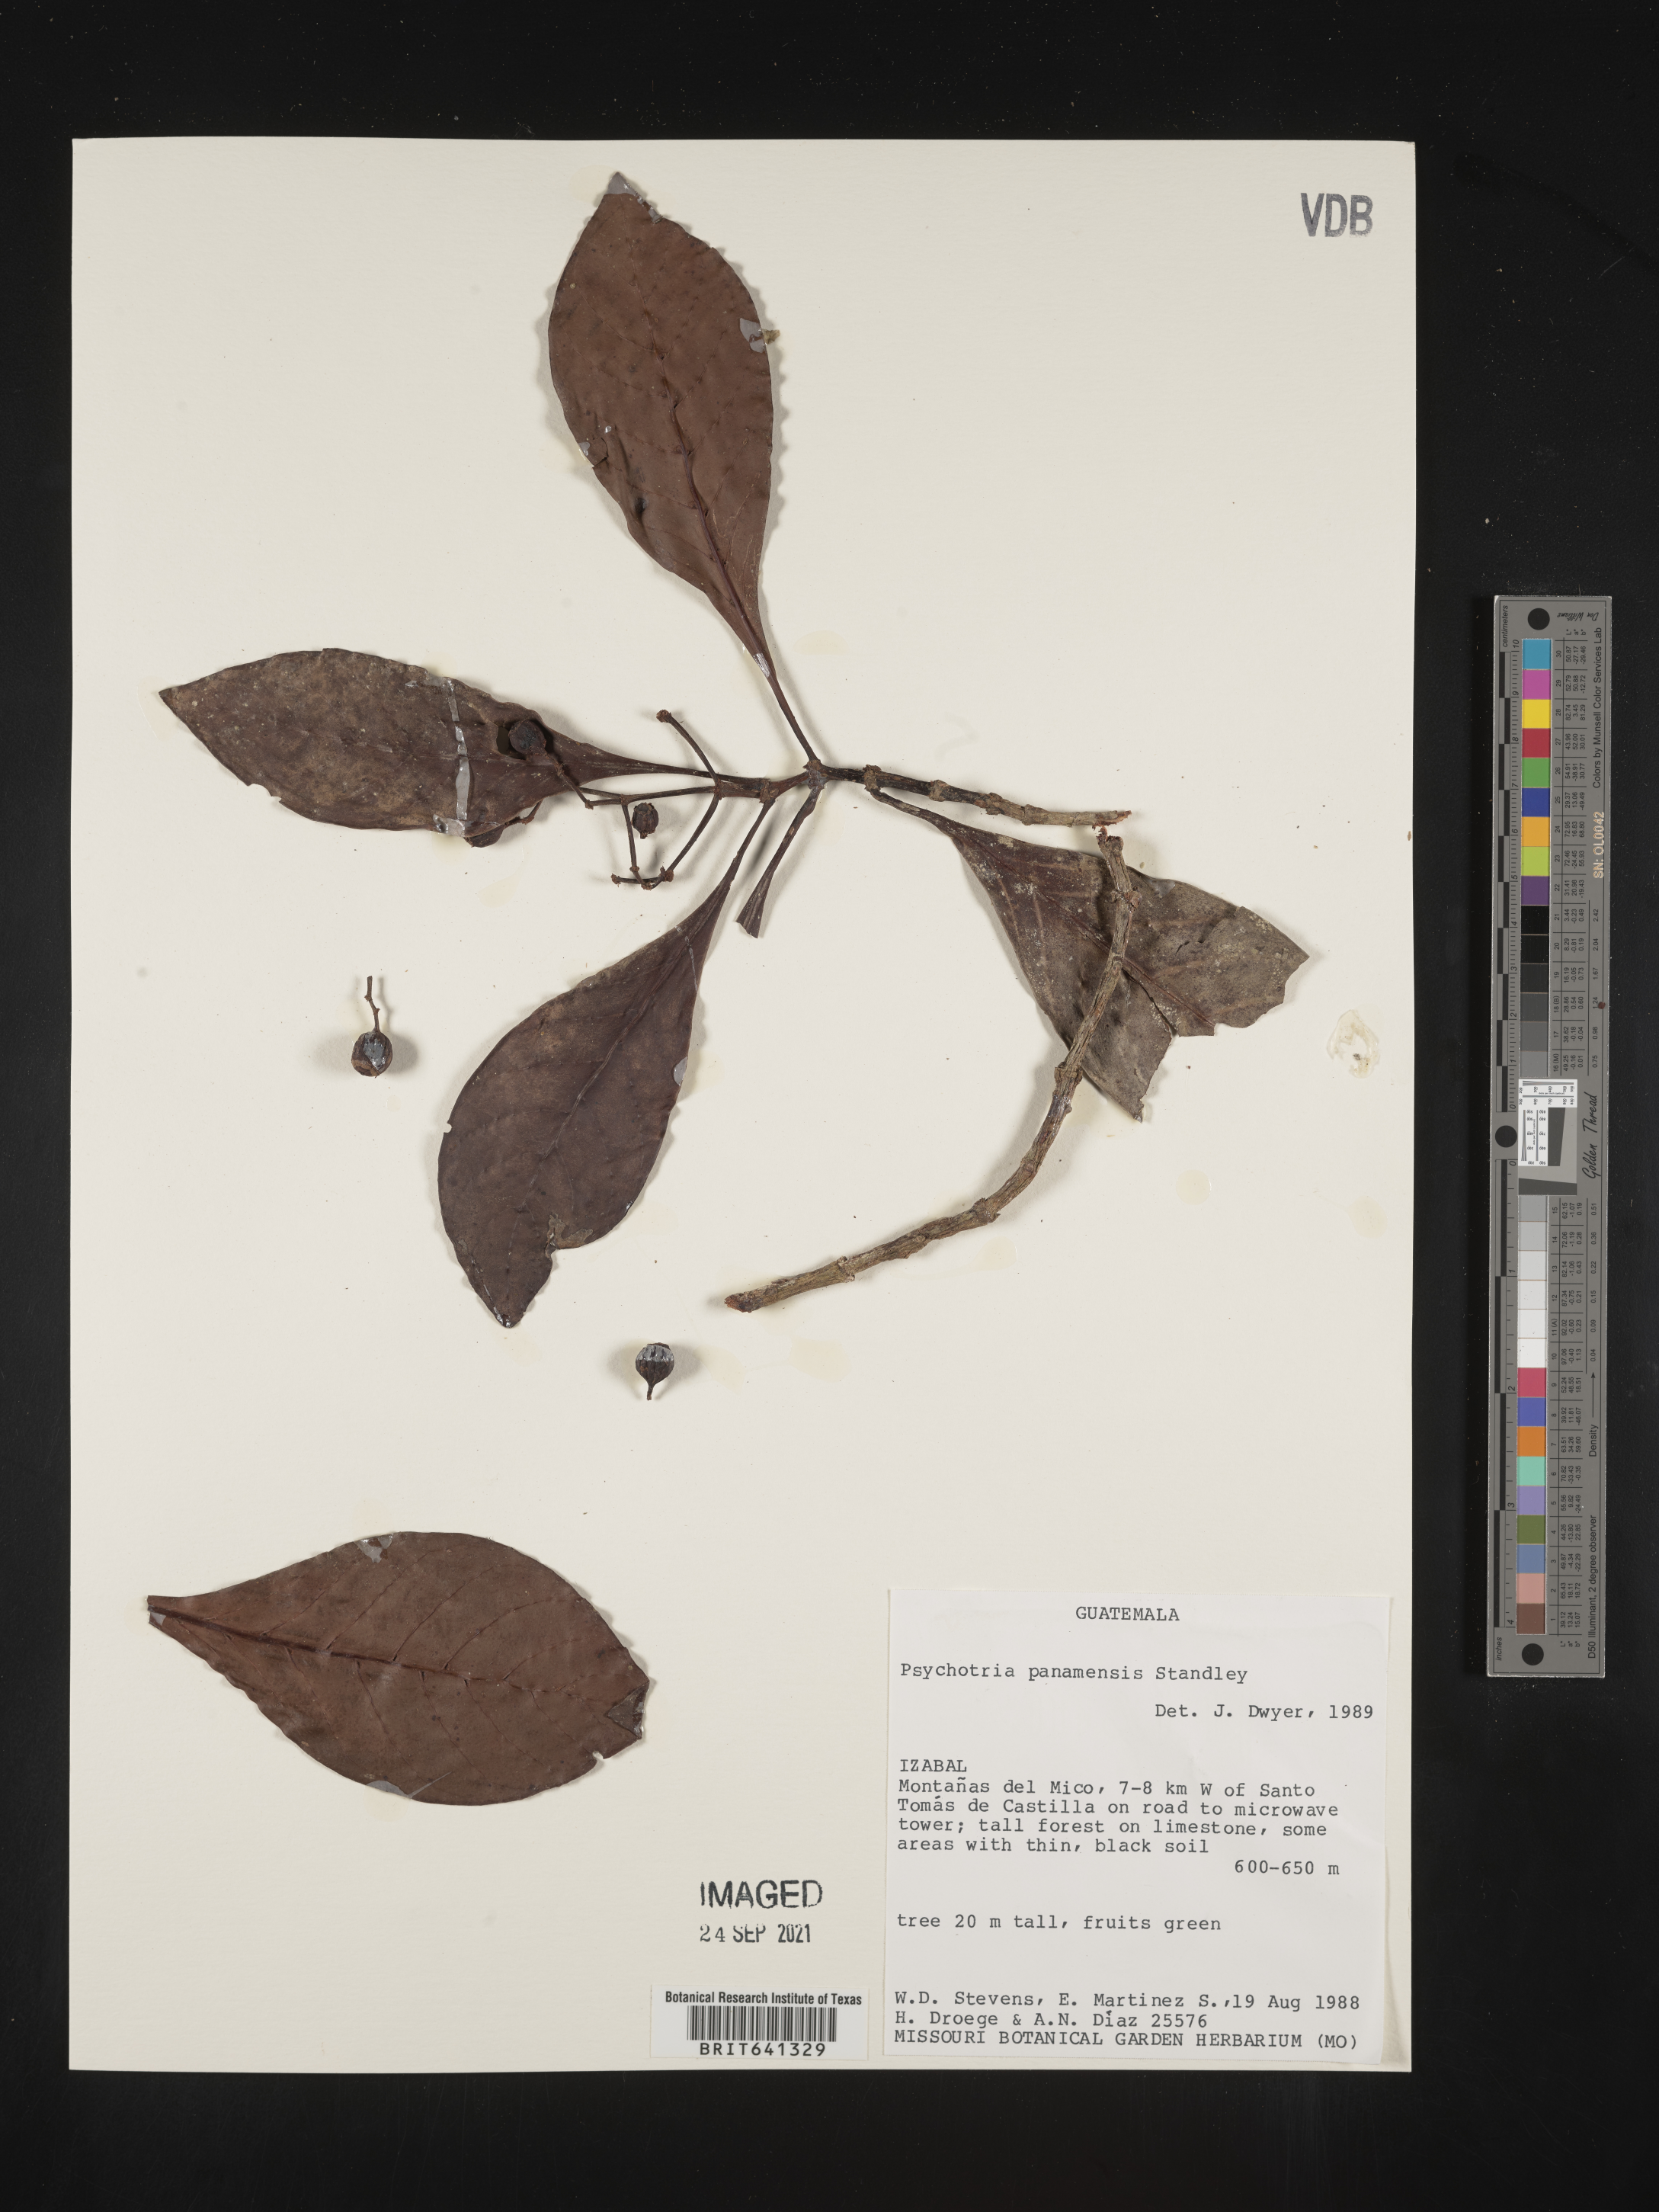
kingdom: Plantae
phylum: Tracheophyta
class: Magnoliopsida
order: Gentianales
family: Rubiaceae
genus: Psychotria
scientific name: Psychotria
